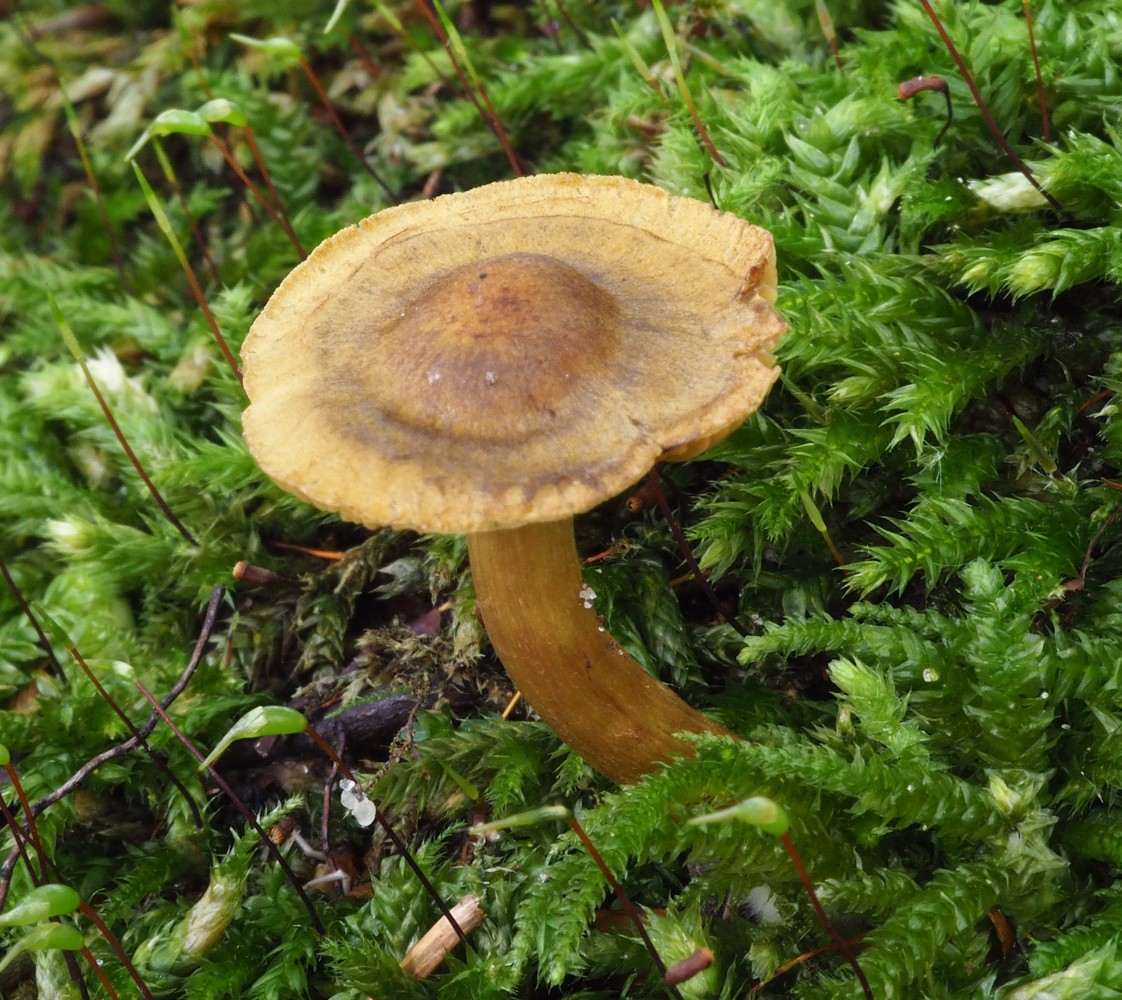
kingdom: Fungi
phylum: Basidiomycota
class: Agaricomycetes
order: Agaricales
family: Cortinariaceae
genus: Cortinarius
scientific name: Cortinarius olivaceofuscus
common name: olivenbrun slørhat
